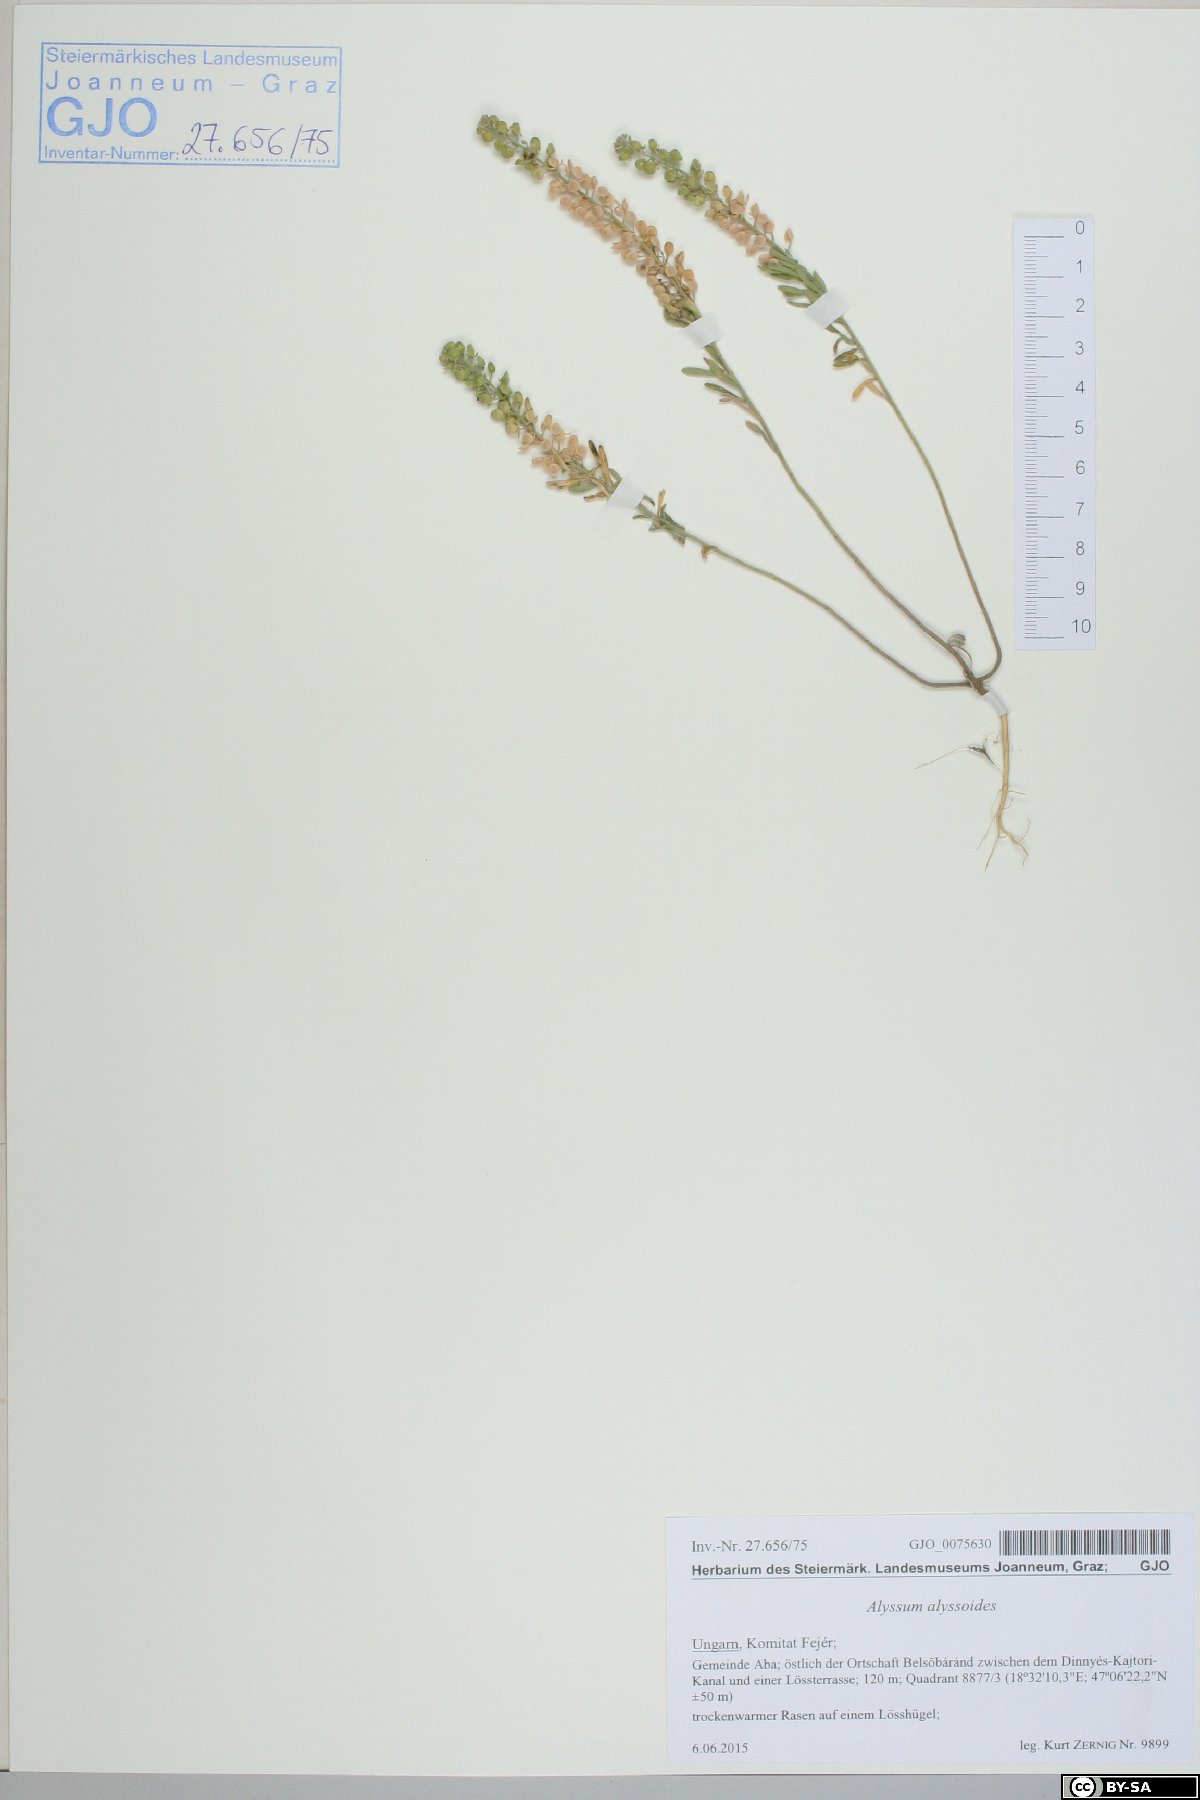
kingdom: Plantae
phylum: Tracheophyta
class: Magnoliopsida
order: Brassicales
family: Brassicaceae
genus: Alyssum
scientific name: Alyssum alyssoides
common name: Small alison
